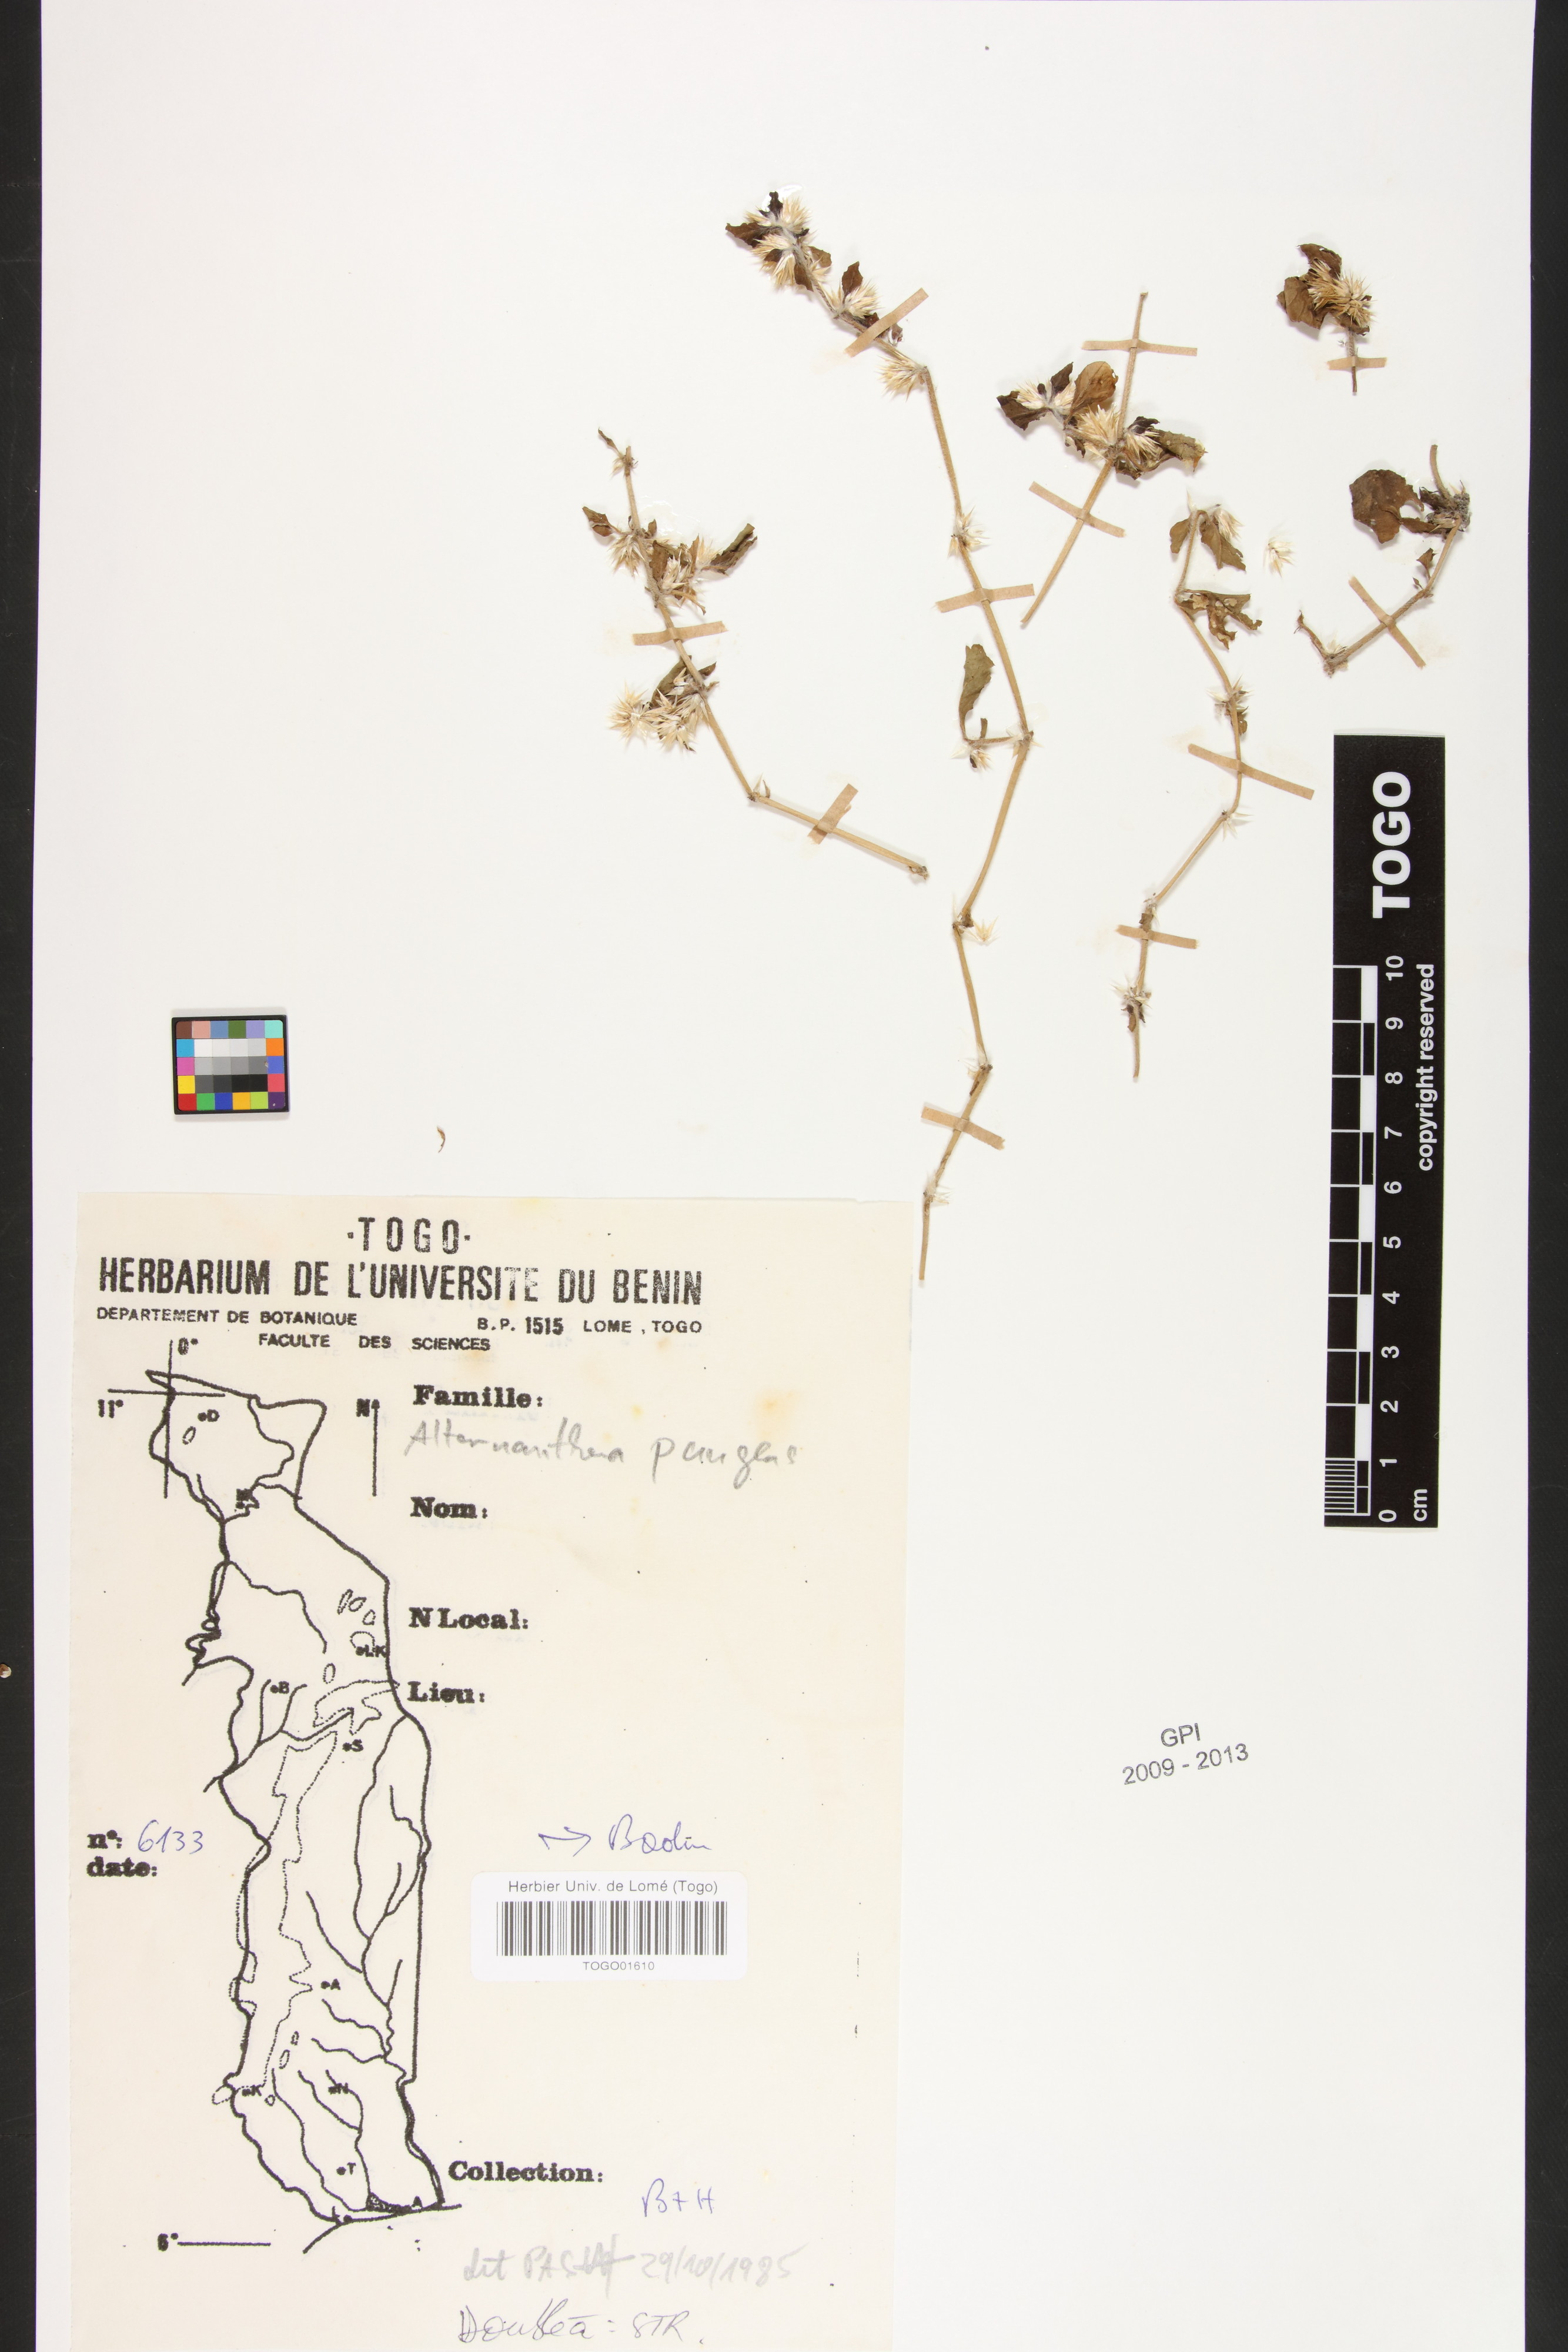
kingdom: Plantae
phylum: Tracheophyta
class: Magnoliopsida
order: Caryophyllales
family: Amaranthaceae
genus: Alternanthera
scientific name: Alternanthera pungens
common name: Khakiweed
